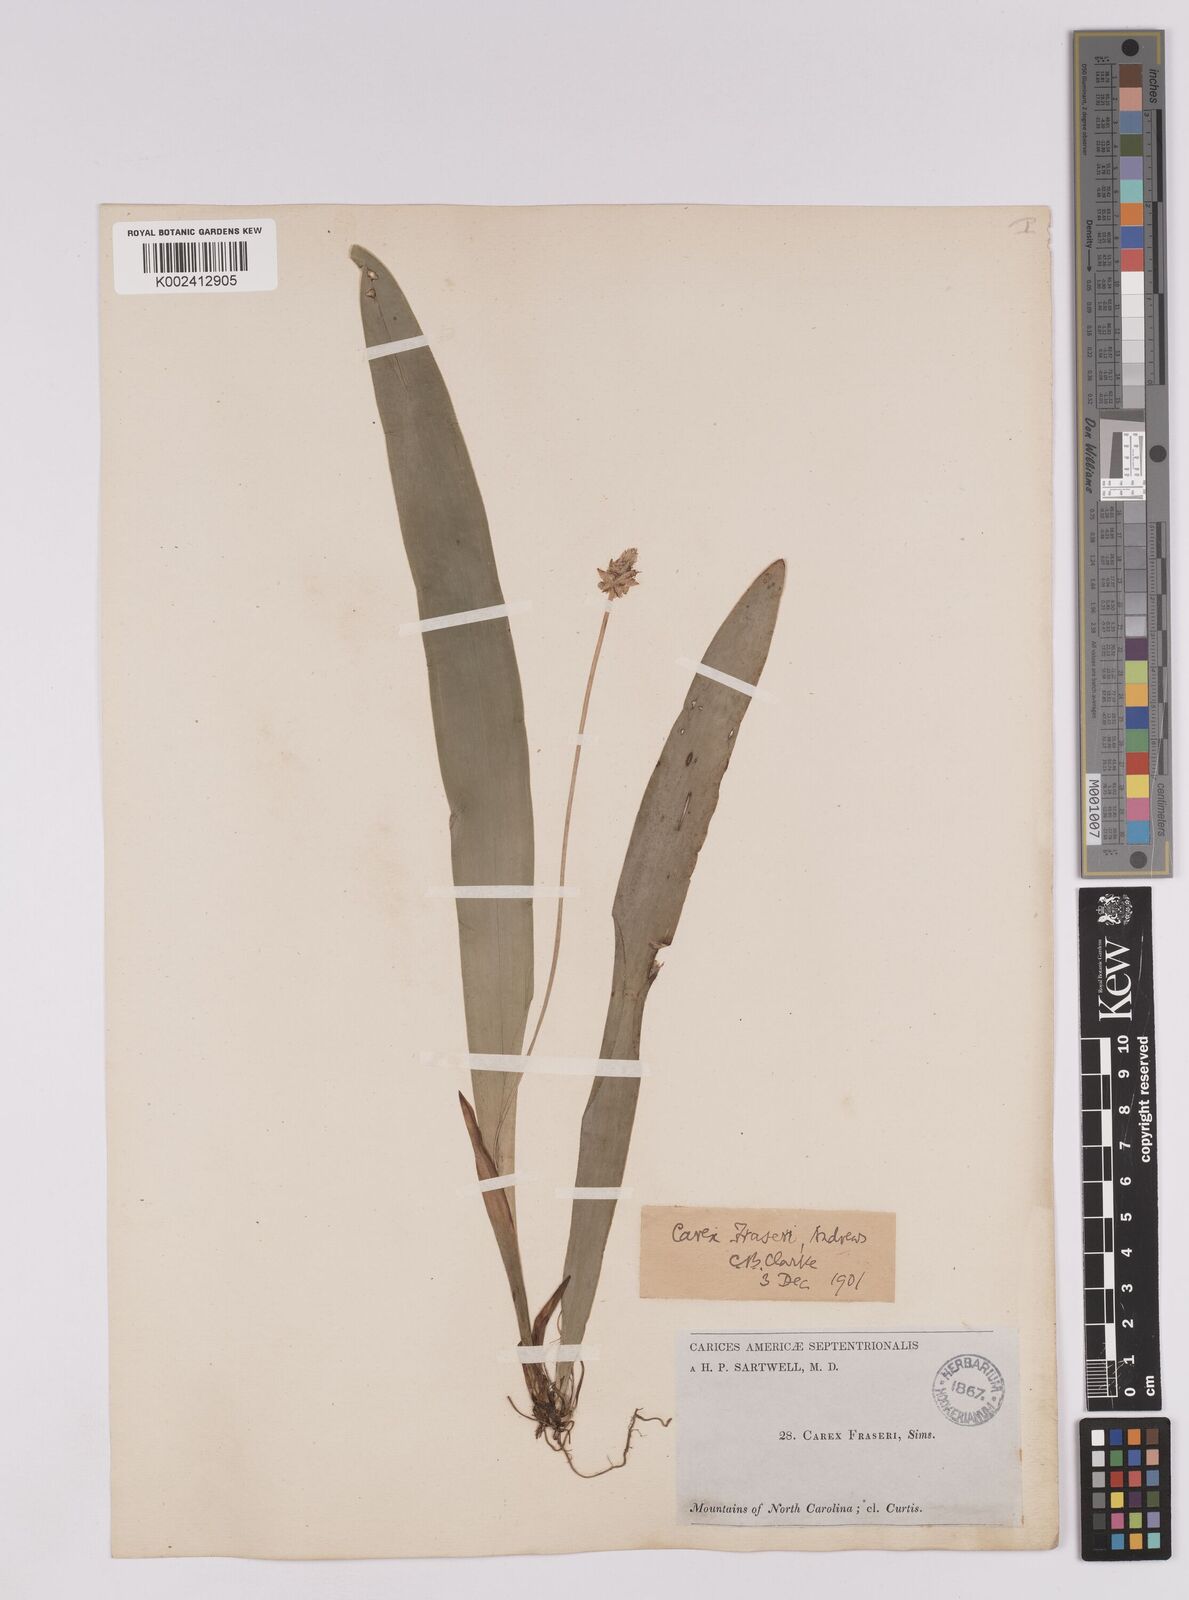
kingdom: Plantae
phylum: Tracheophyta
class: Liliopsida
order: Poales
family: Cyperaceae
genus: Carex
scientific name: Carex fraseriana
